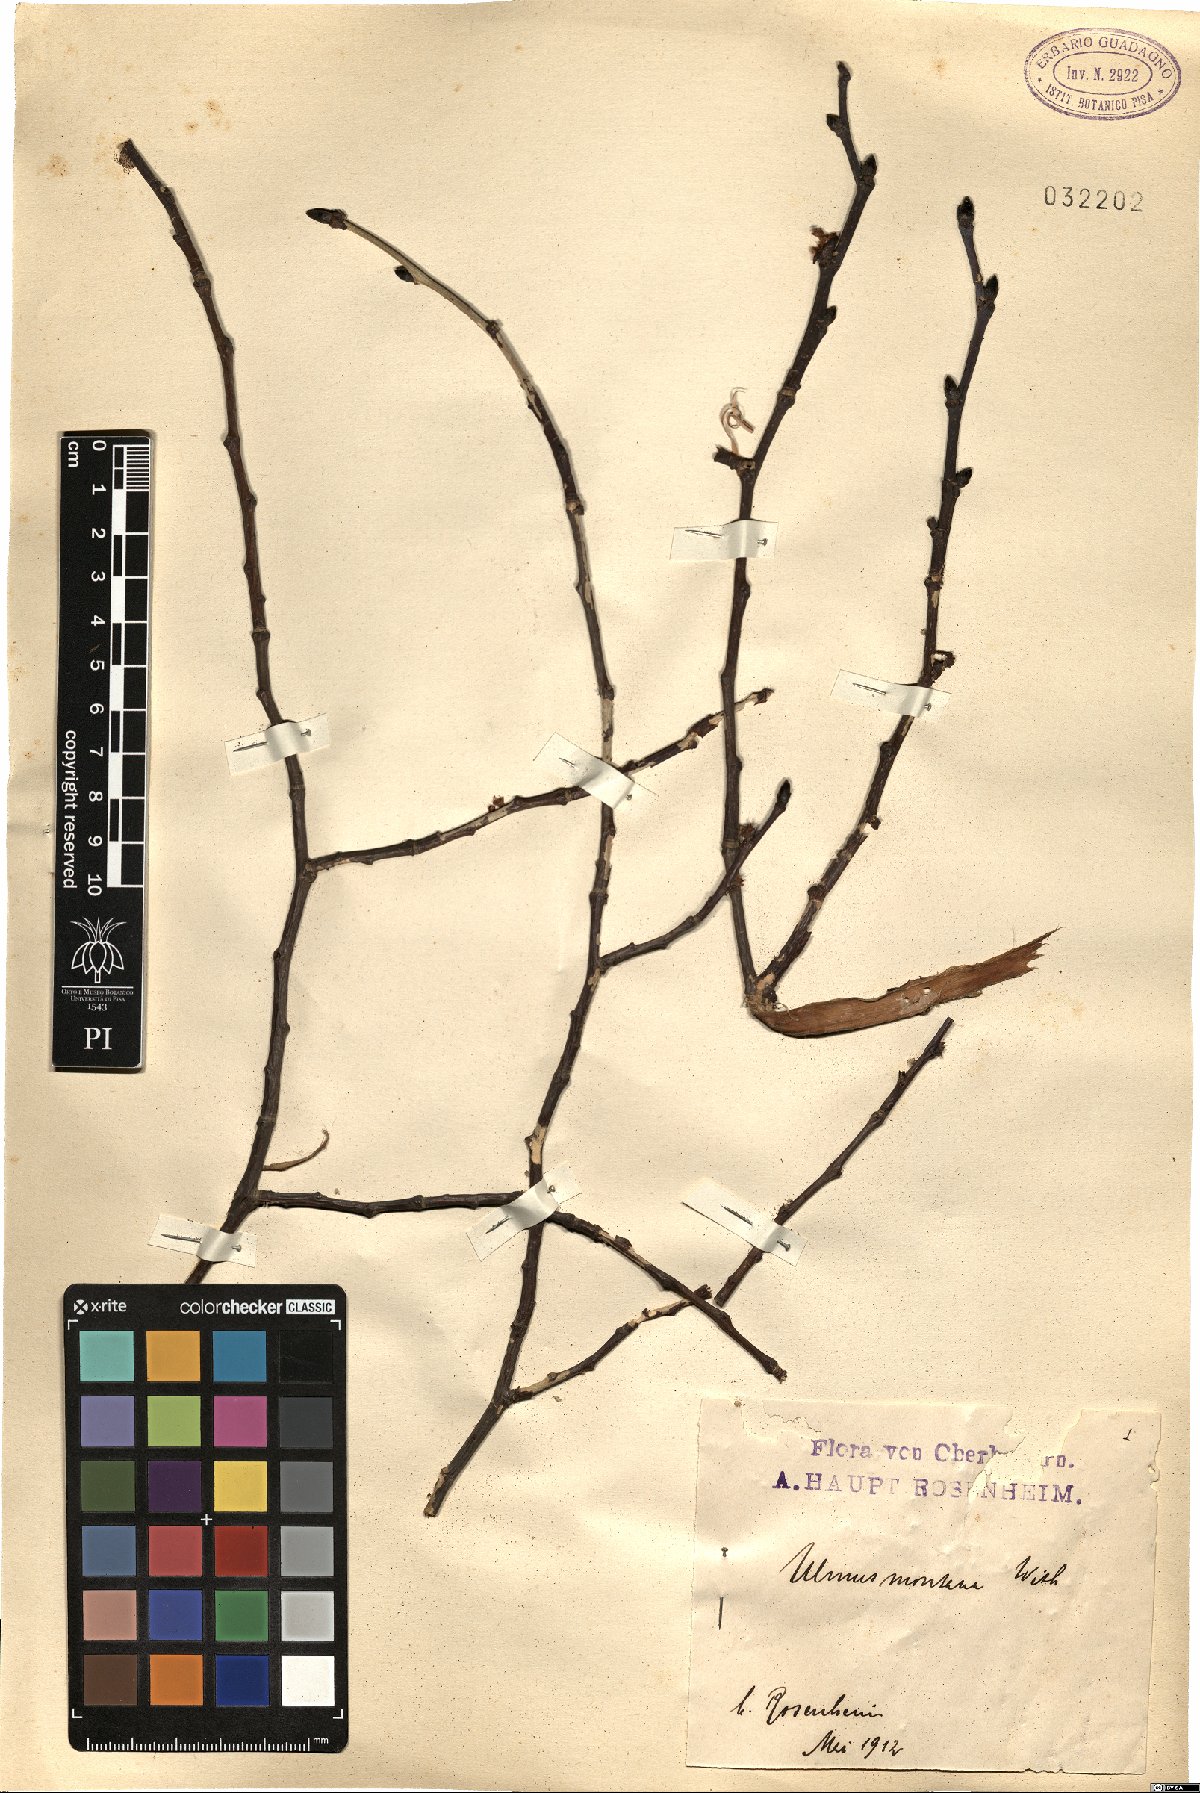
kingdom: Plantae
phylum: Tracheophyta
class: Magnoliopsida
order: Rosales
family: Ulmaceae
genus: Ulmus
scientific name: Ulmus glabra
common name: Wych elm
